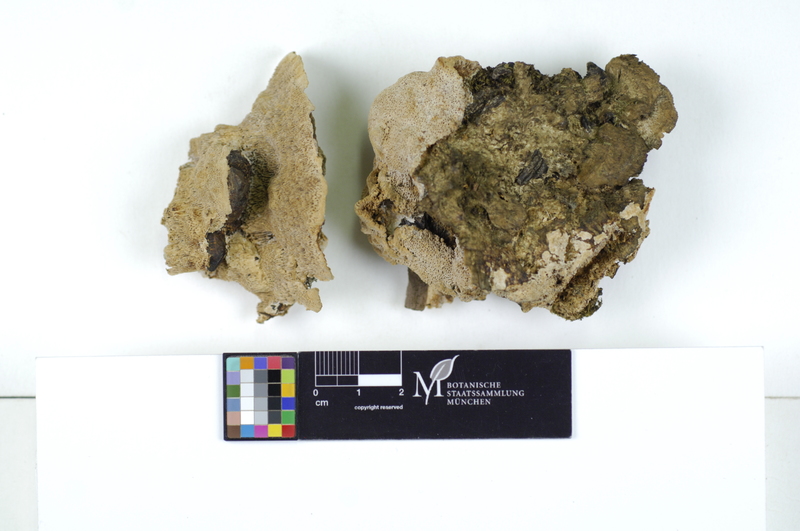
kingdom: Plantae
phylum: Tracheophyta
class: Magnoliopsida
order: Sapindales
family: Sapindaceae
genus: Aesculus
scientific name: Aesculus
